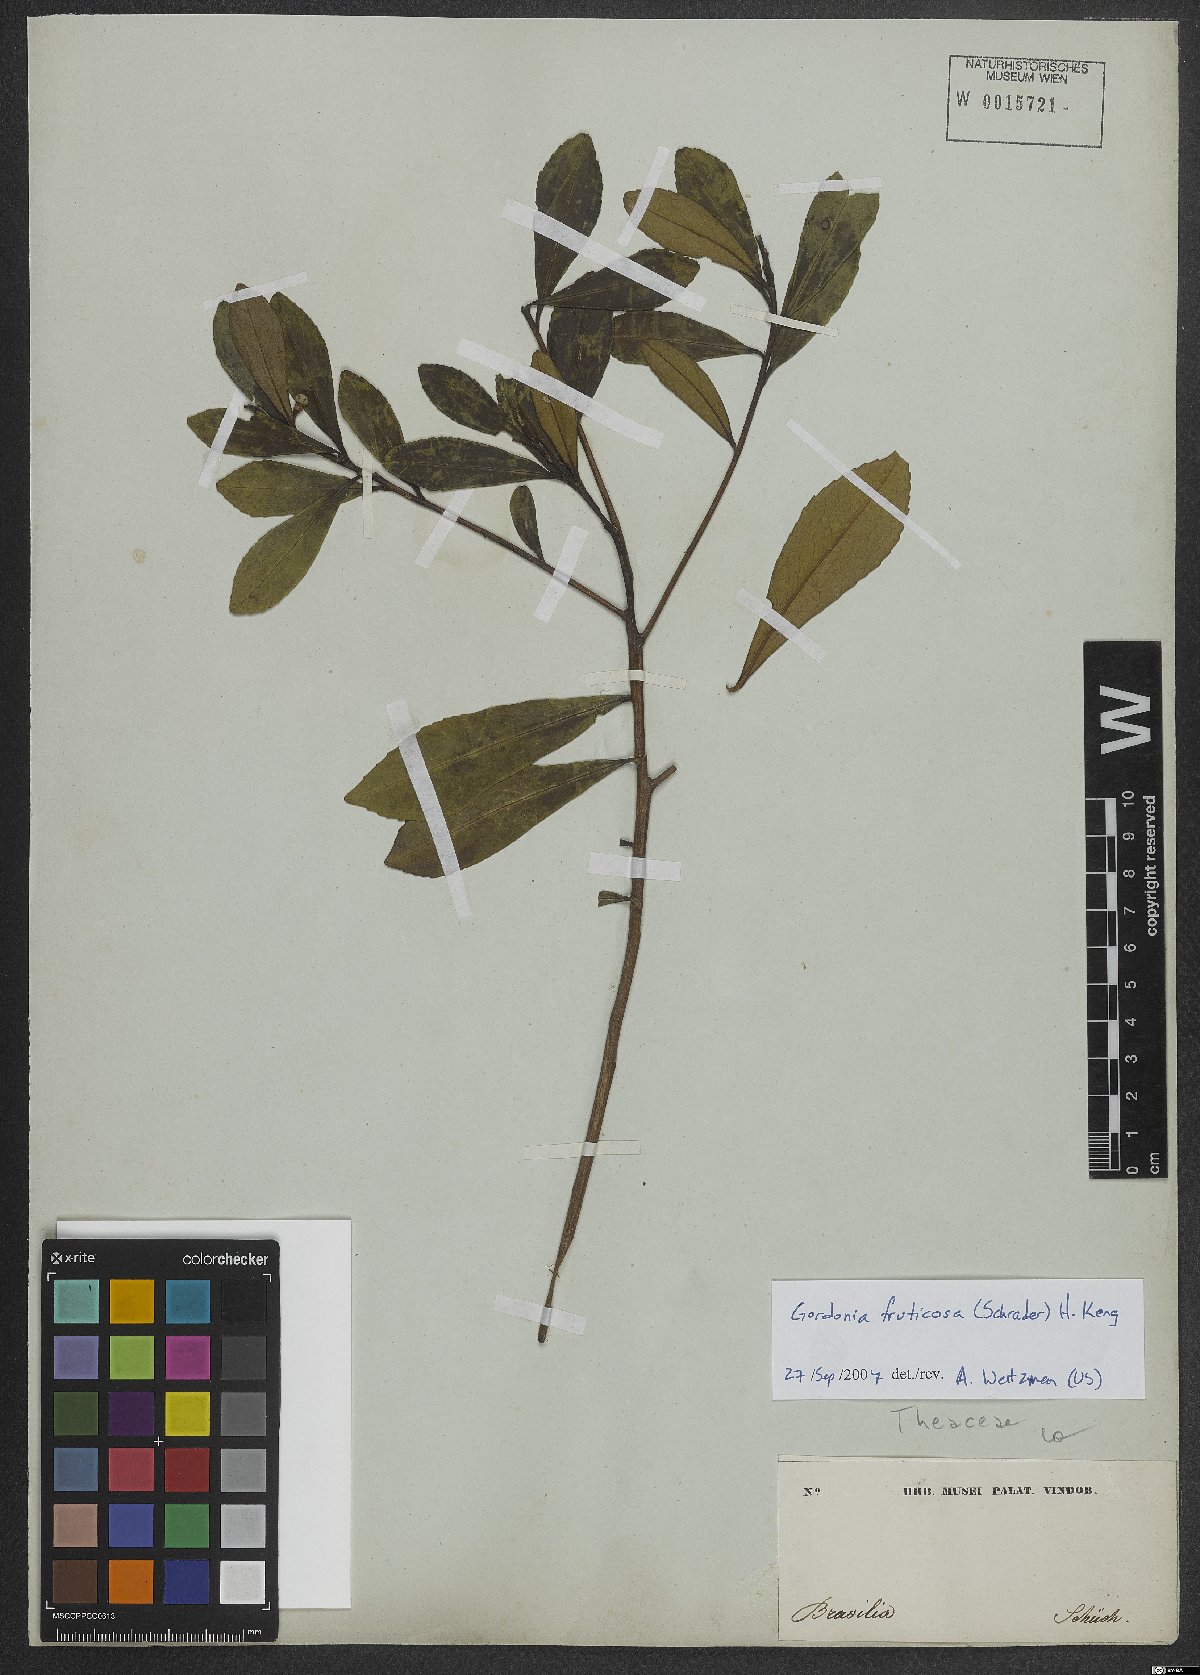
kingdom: Plantae
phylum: Tracheophyta
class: Magnoliopsida
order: Ericales
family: Theaceae
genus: Gordonia
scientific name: Gordonia fruticosa
